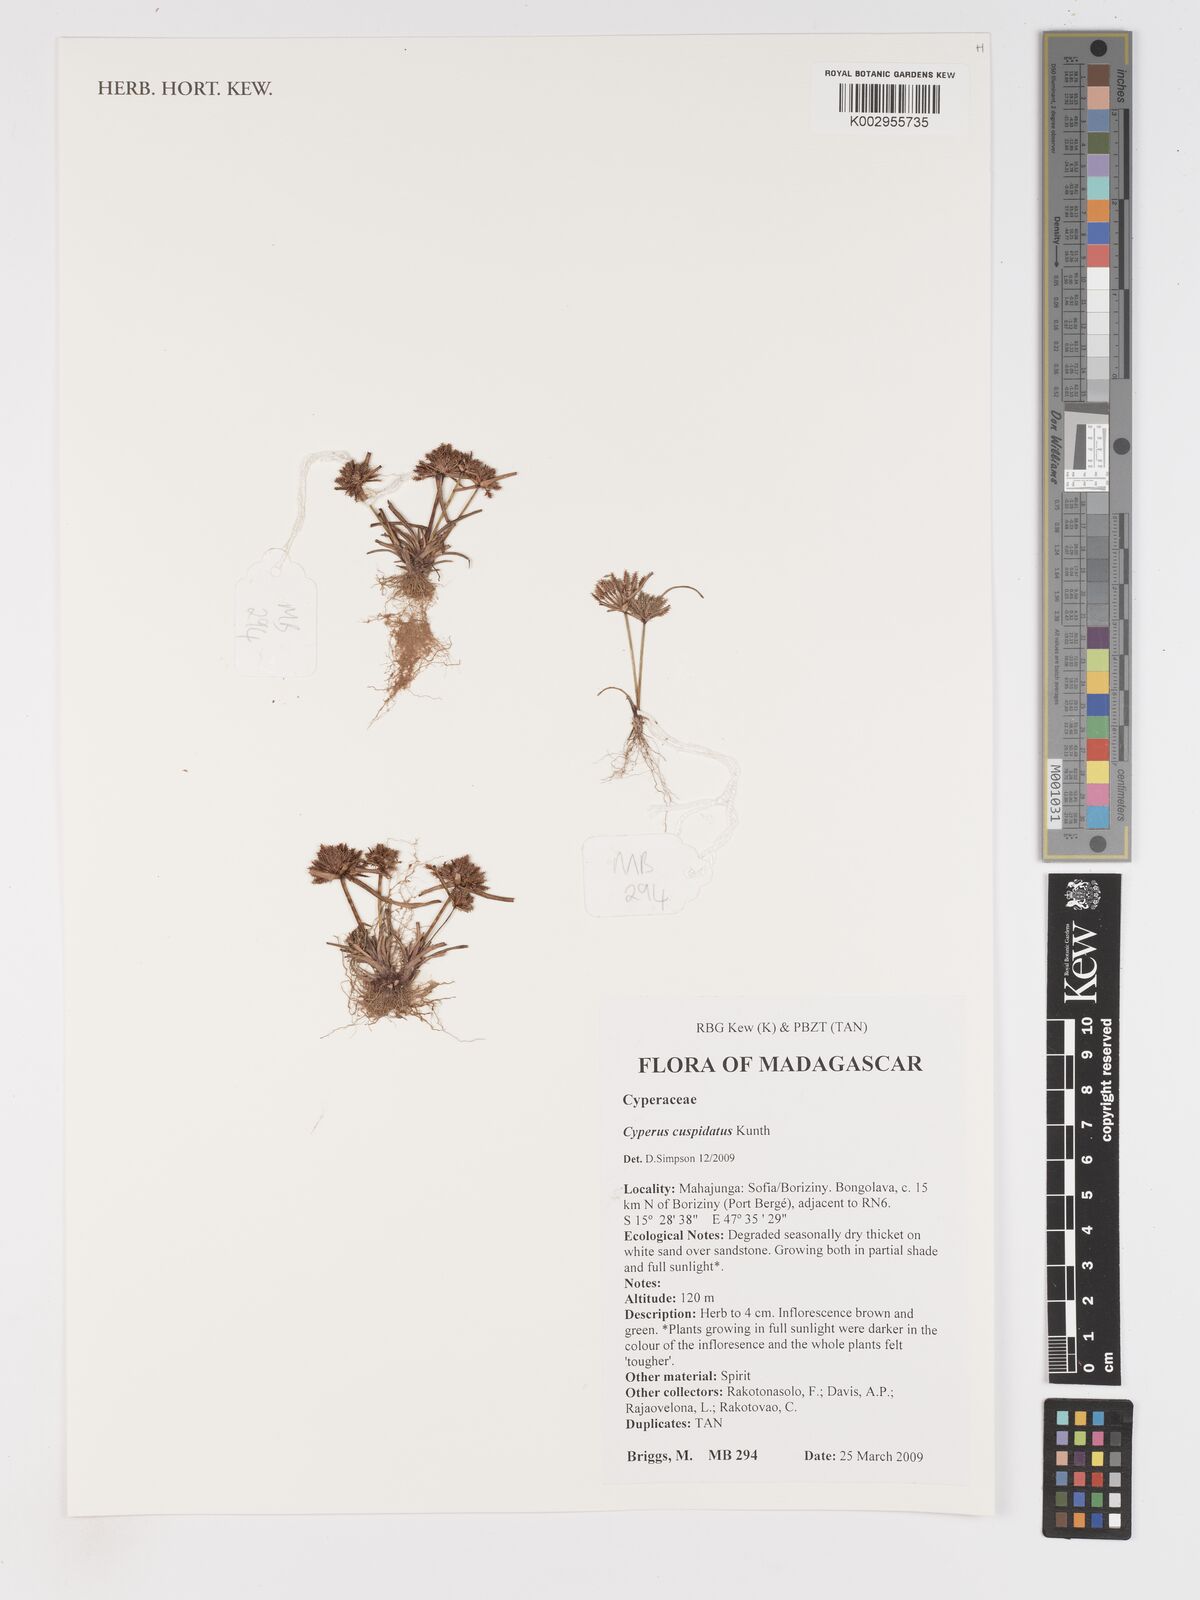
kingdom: Plantae
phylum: Tracheophyta
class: Liliopsida
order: Poales
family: Cyperaceae
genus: Cyperus
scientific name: Cyperus cuspidatus
